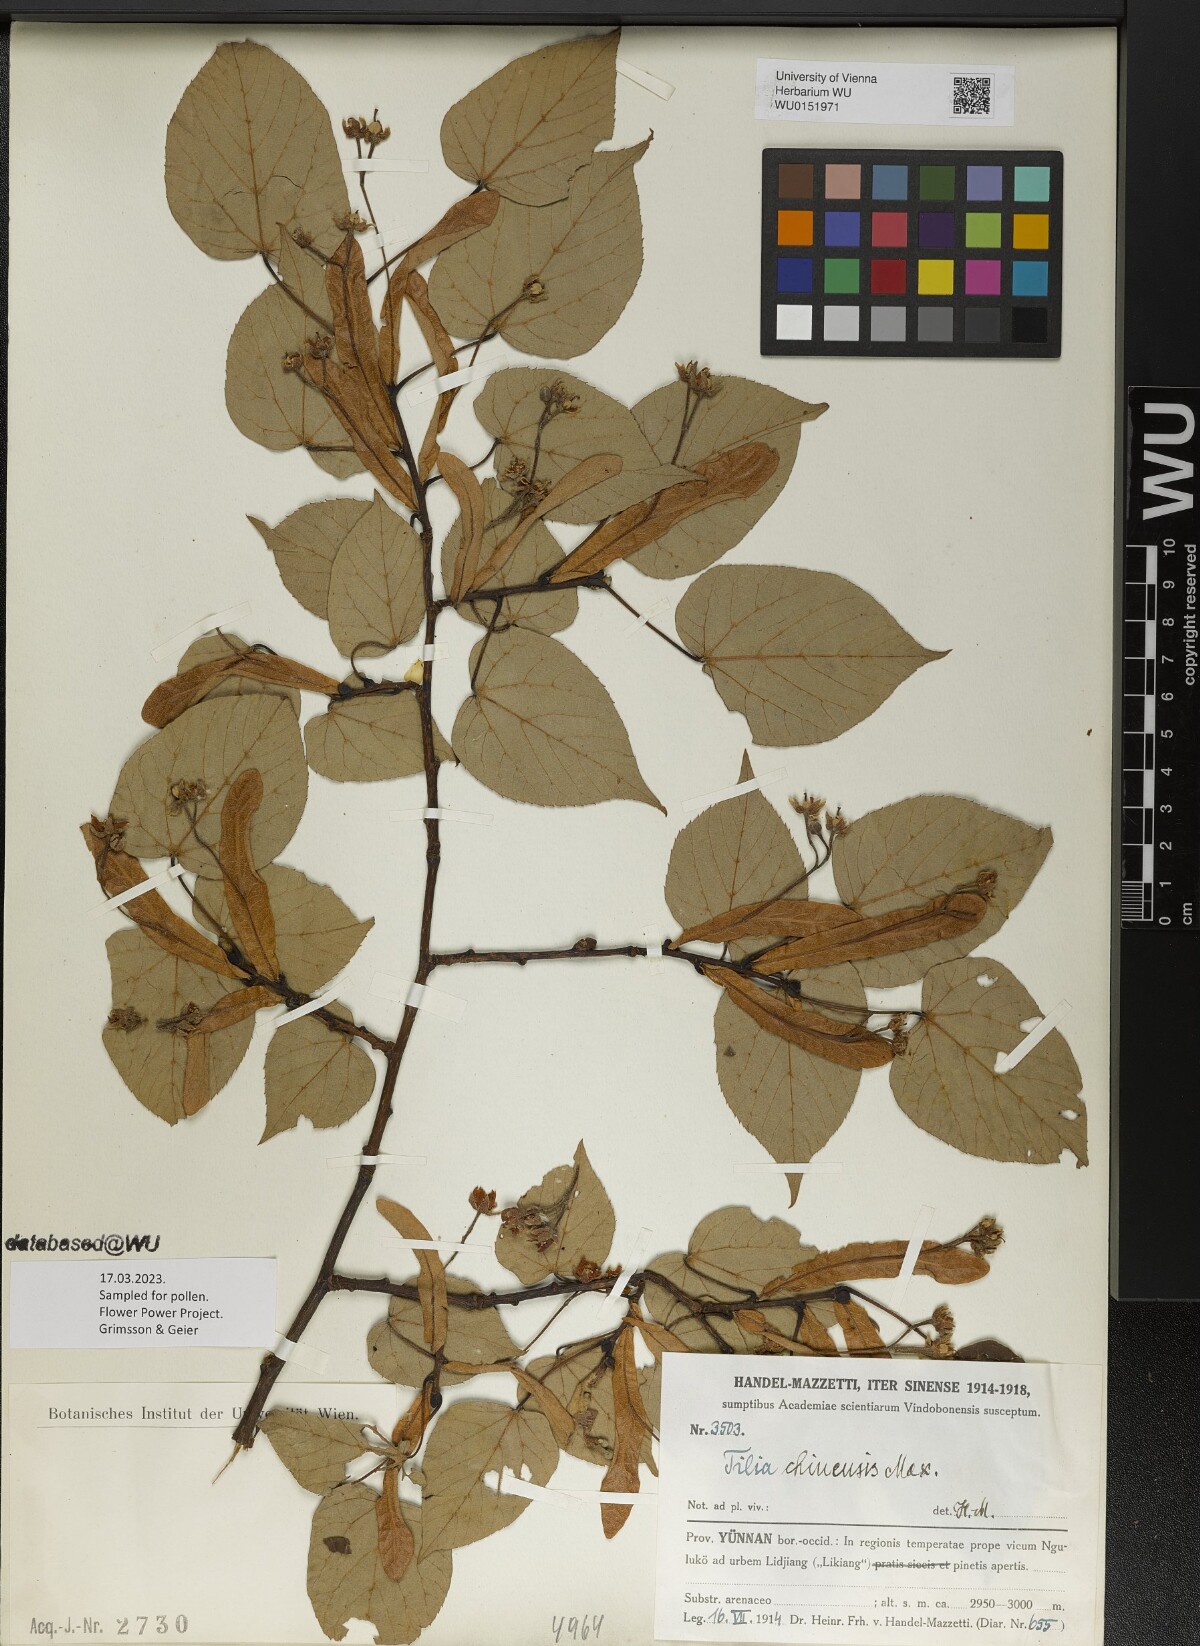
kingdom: Plantae
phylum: Tracheophyta
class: Magnoliopsida
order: Malvales
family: Malvaceae
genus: Tilia
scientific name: Tilia chinensis
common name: Chinese linden
